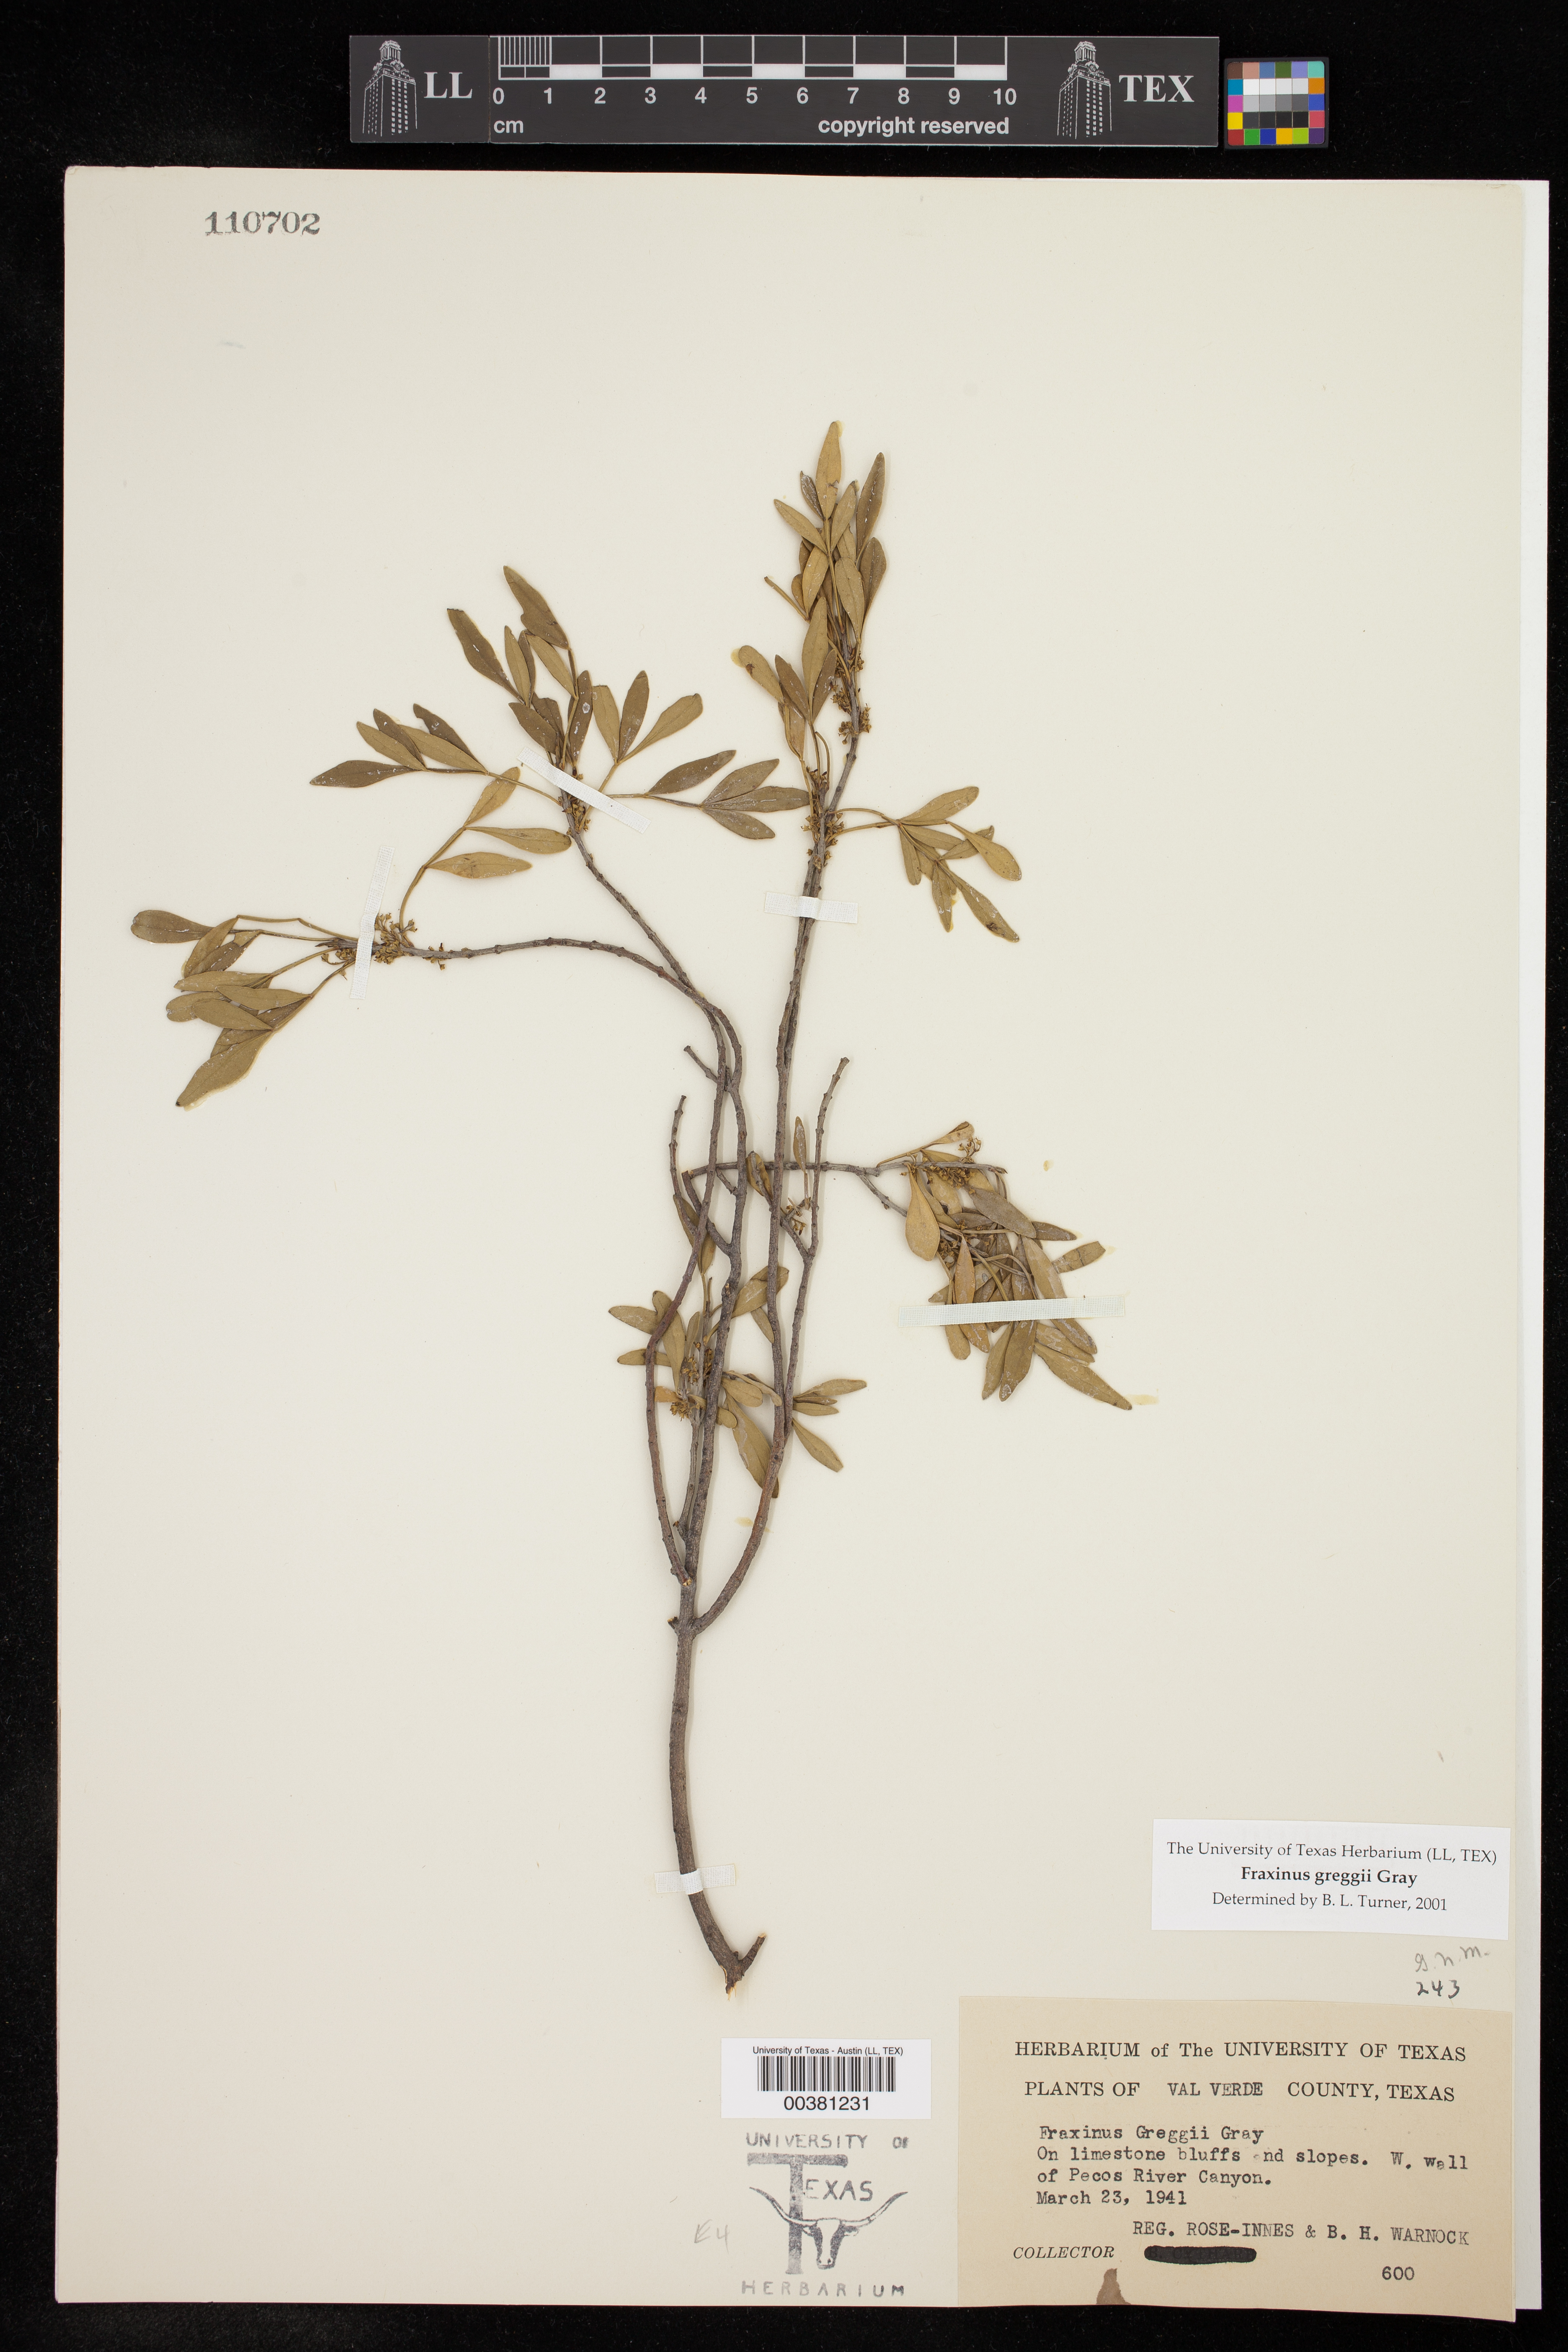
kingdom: Plantae
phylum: Tracheophyta
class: Magnoliopsida
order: Lamiales
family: Oleaceae
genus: Fraxinus
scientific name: Fraxinus greggii
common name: Gregg ash
